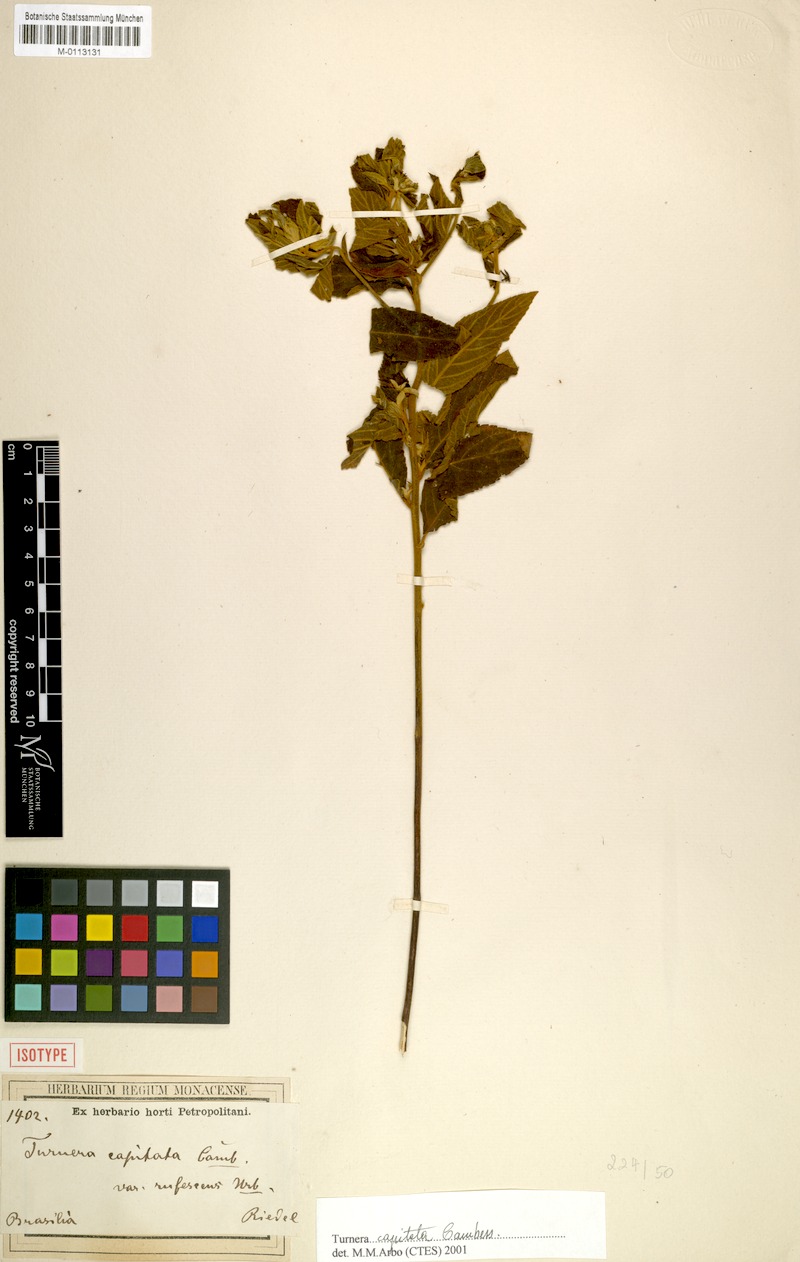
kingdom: Plantae
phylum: Tracheophyta
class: Magnoliopsida
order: Malpighiales
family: Turneraceae
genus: Oxossia
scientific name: Oxossia capitata
